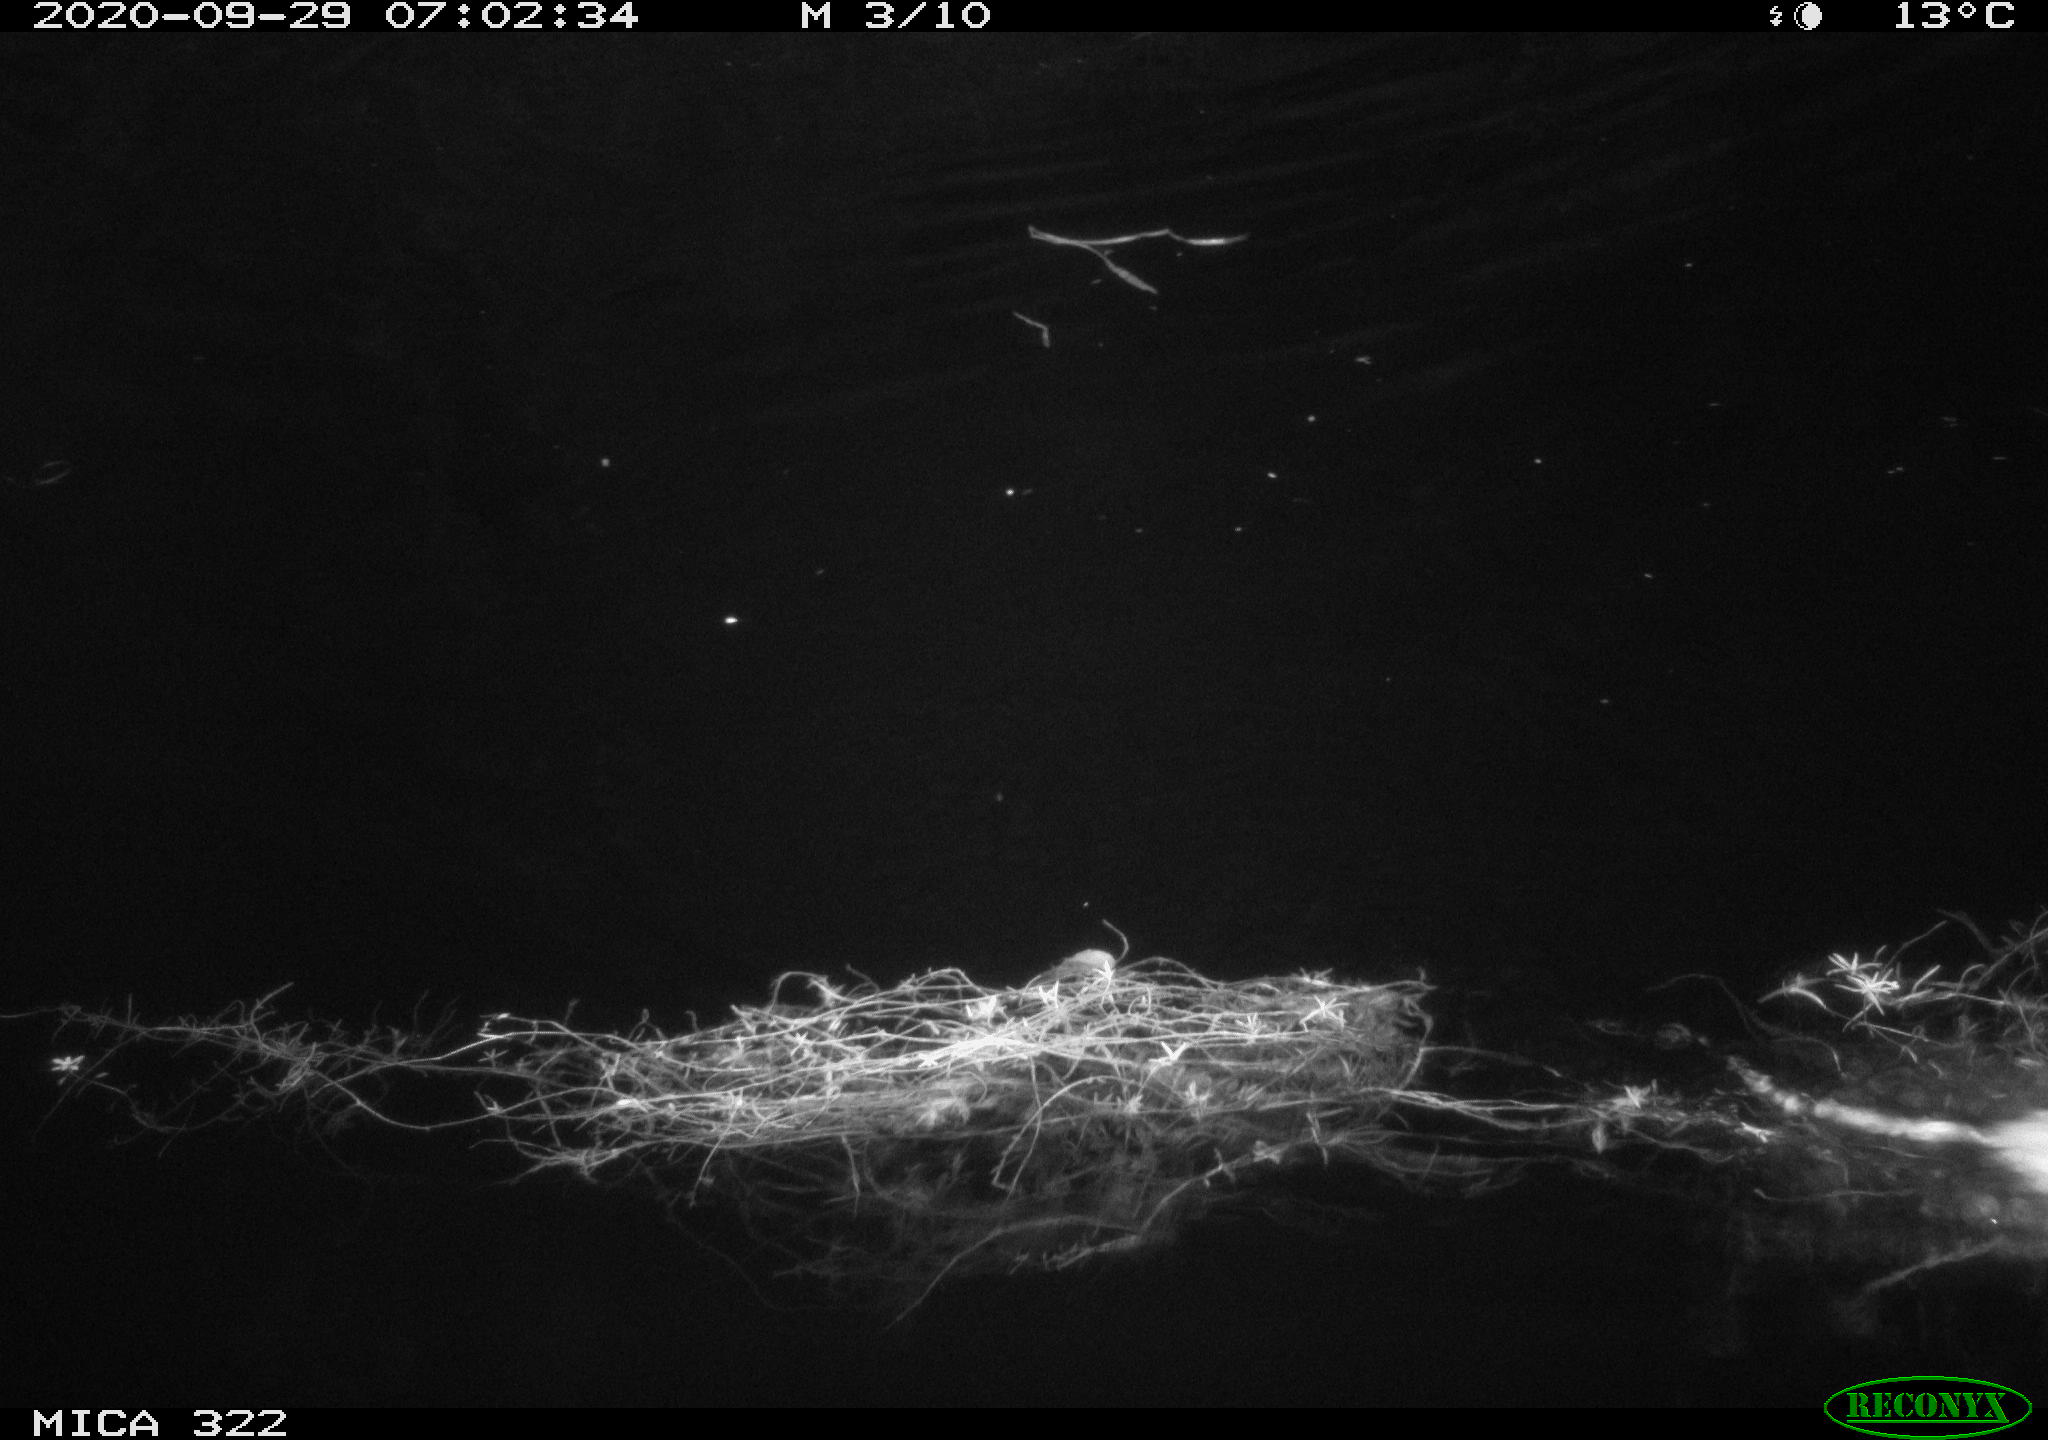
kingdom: Animalia
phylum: Chordata
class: Mammalia
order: Rodentia
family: Muridae
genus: Rattus
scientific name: Rattus norvegicus
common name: Brown rat
